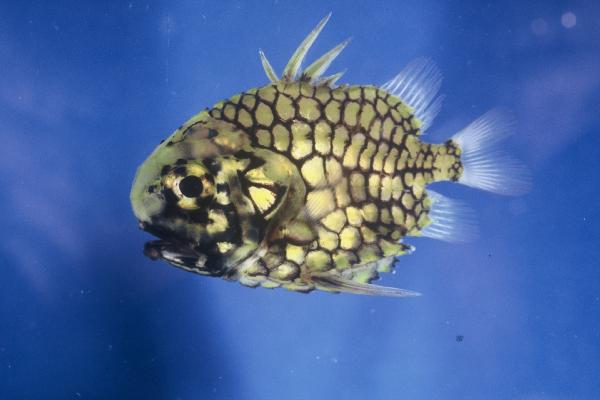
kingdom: Animalia
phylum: Chordata
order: Beryciformes
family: Monocentridae
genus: Monocentris
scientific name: Monocentris japonica
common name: Pineconefish
